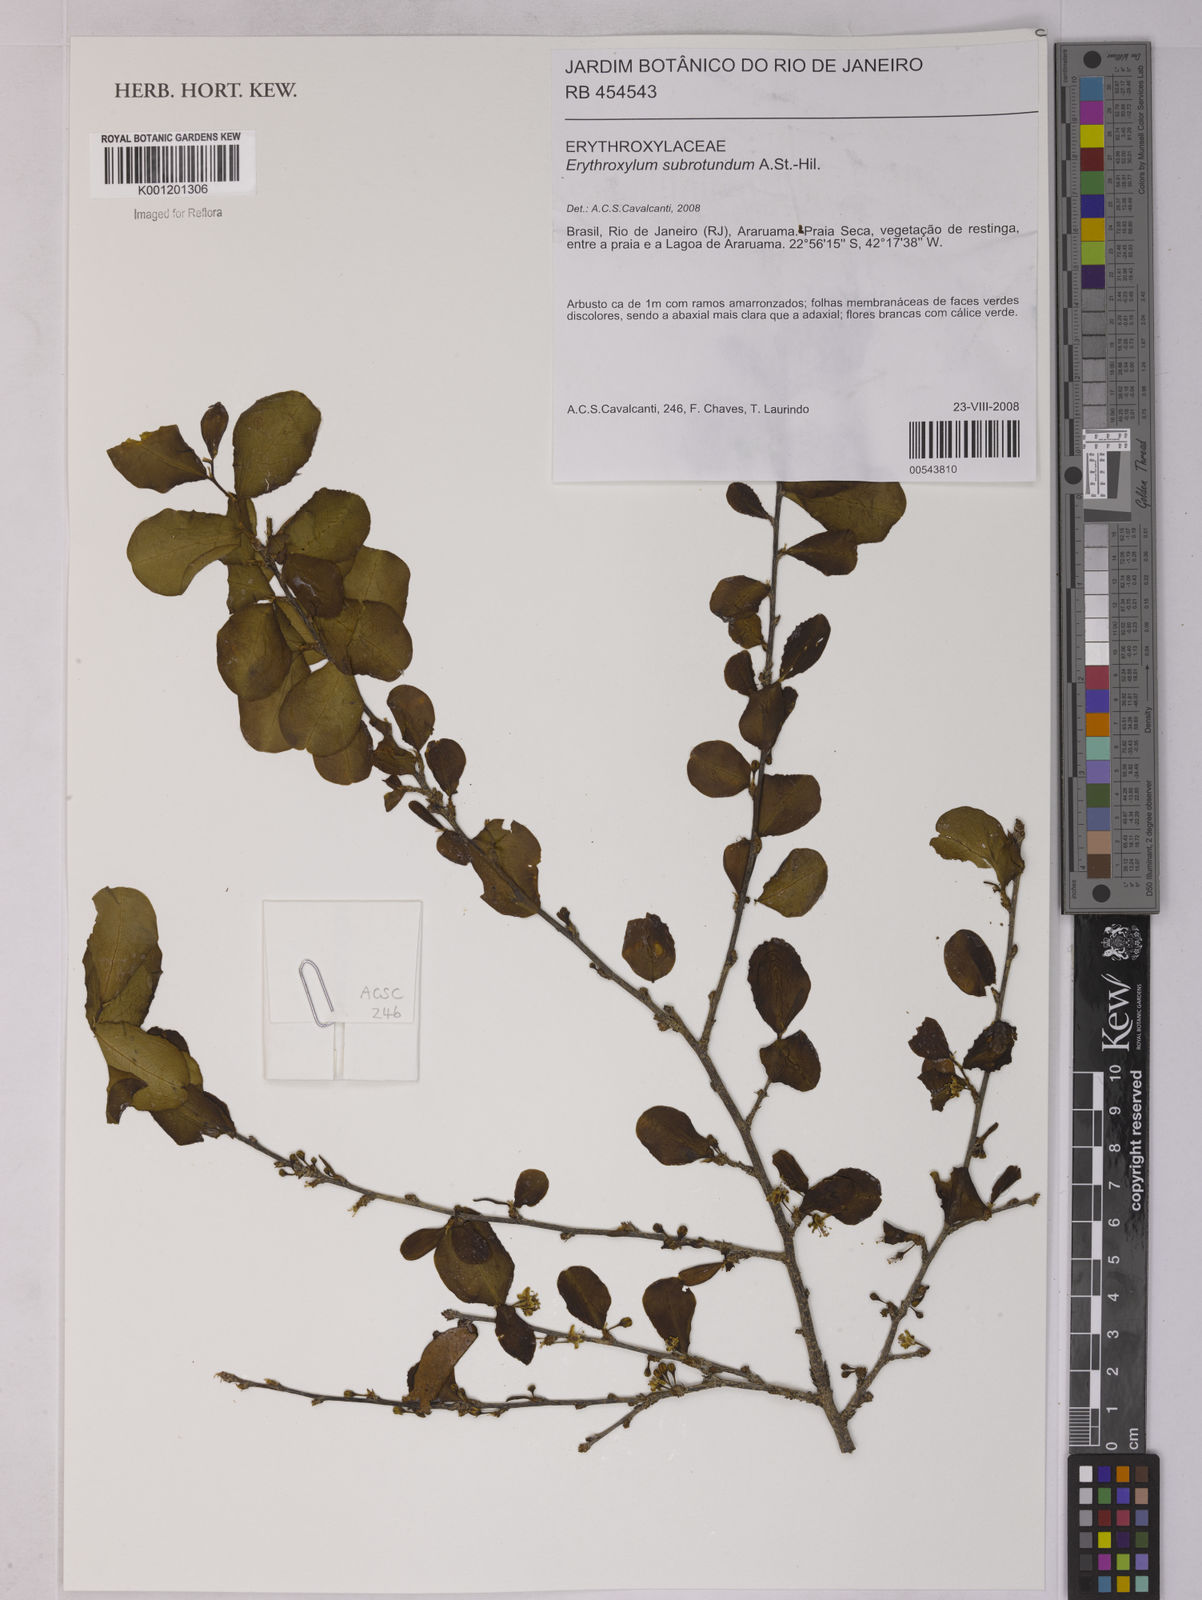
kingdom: Plantae
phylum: Tracheophyta
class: Magnoliopsida
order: Malpighiales
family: Erythroxylaceae
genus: Erythroxylum
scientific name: Erythroxylum subrotundum
